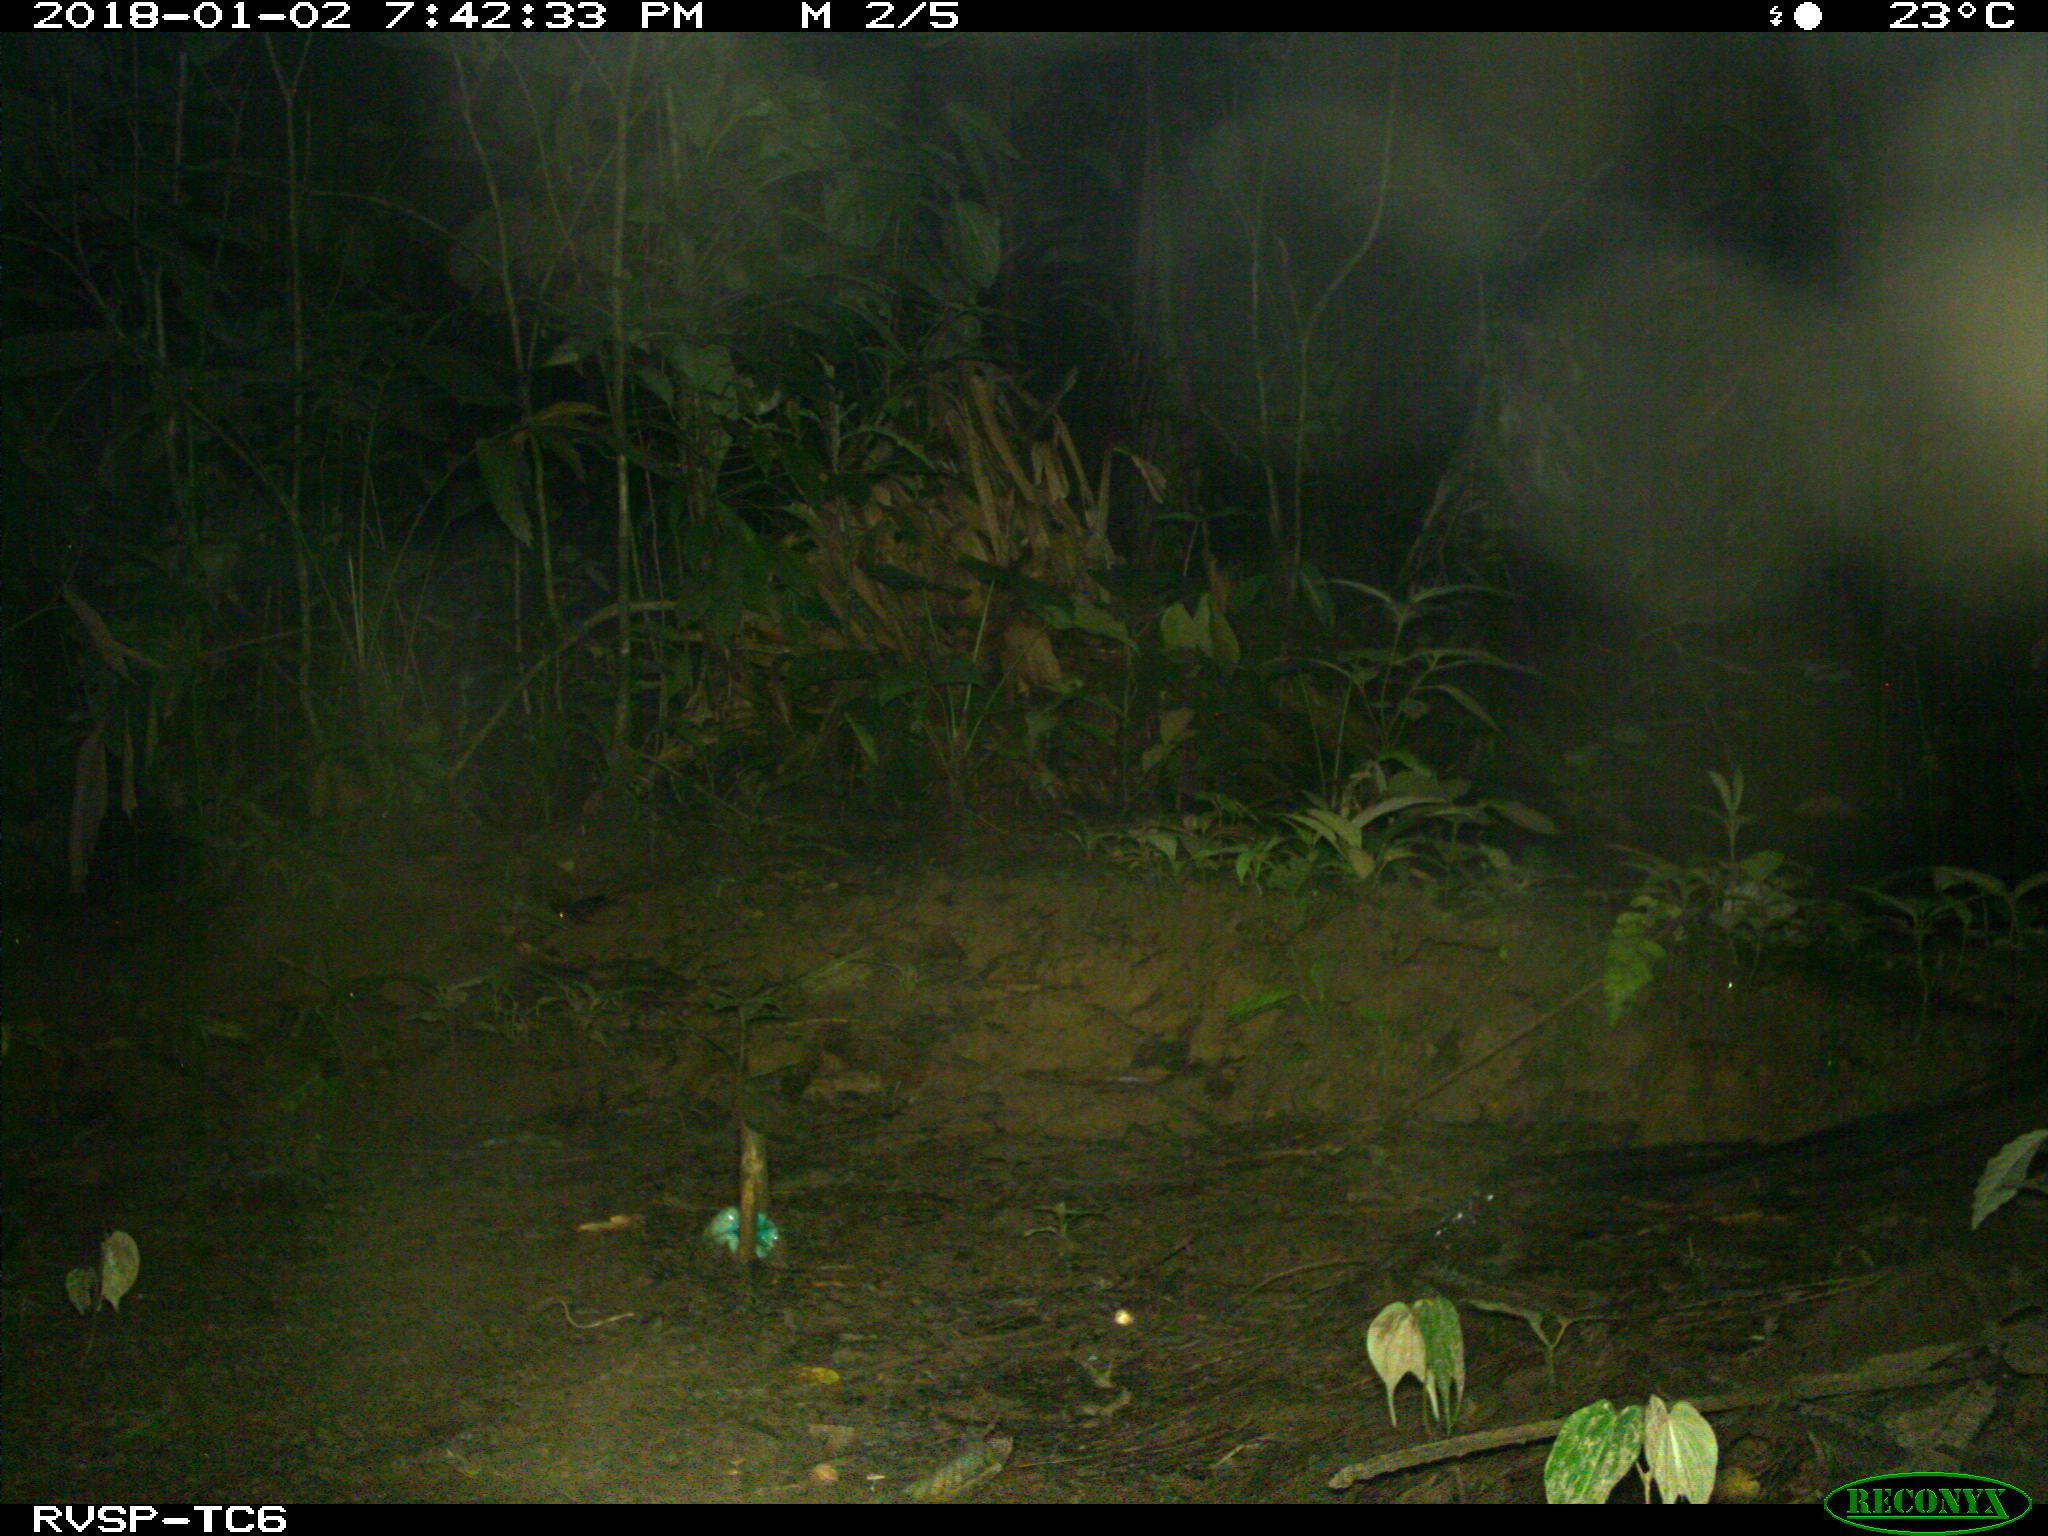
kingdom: Animalia
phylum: Chordata
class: Mammalia
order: Carnivora
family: Felidae
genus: Leopardus
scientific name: Leopardus pardalis
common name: Ocelot
